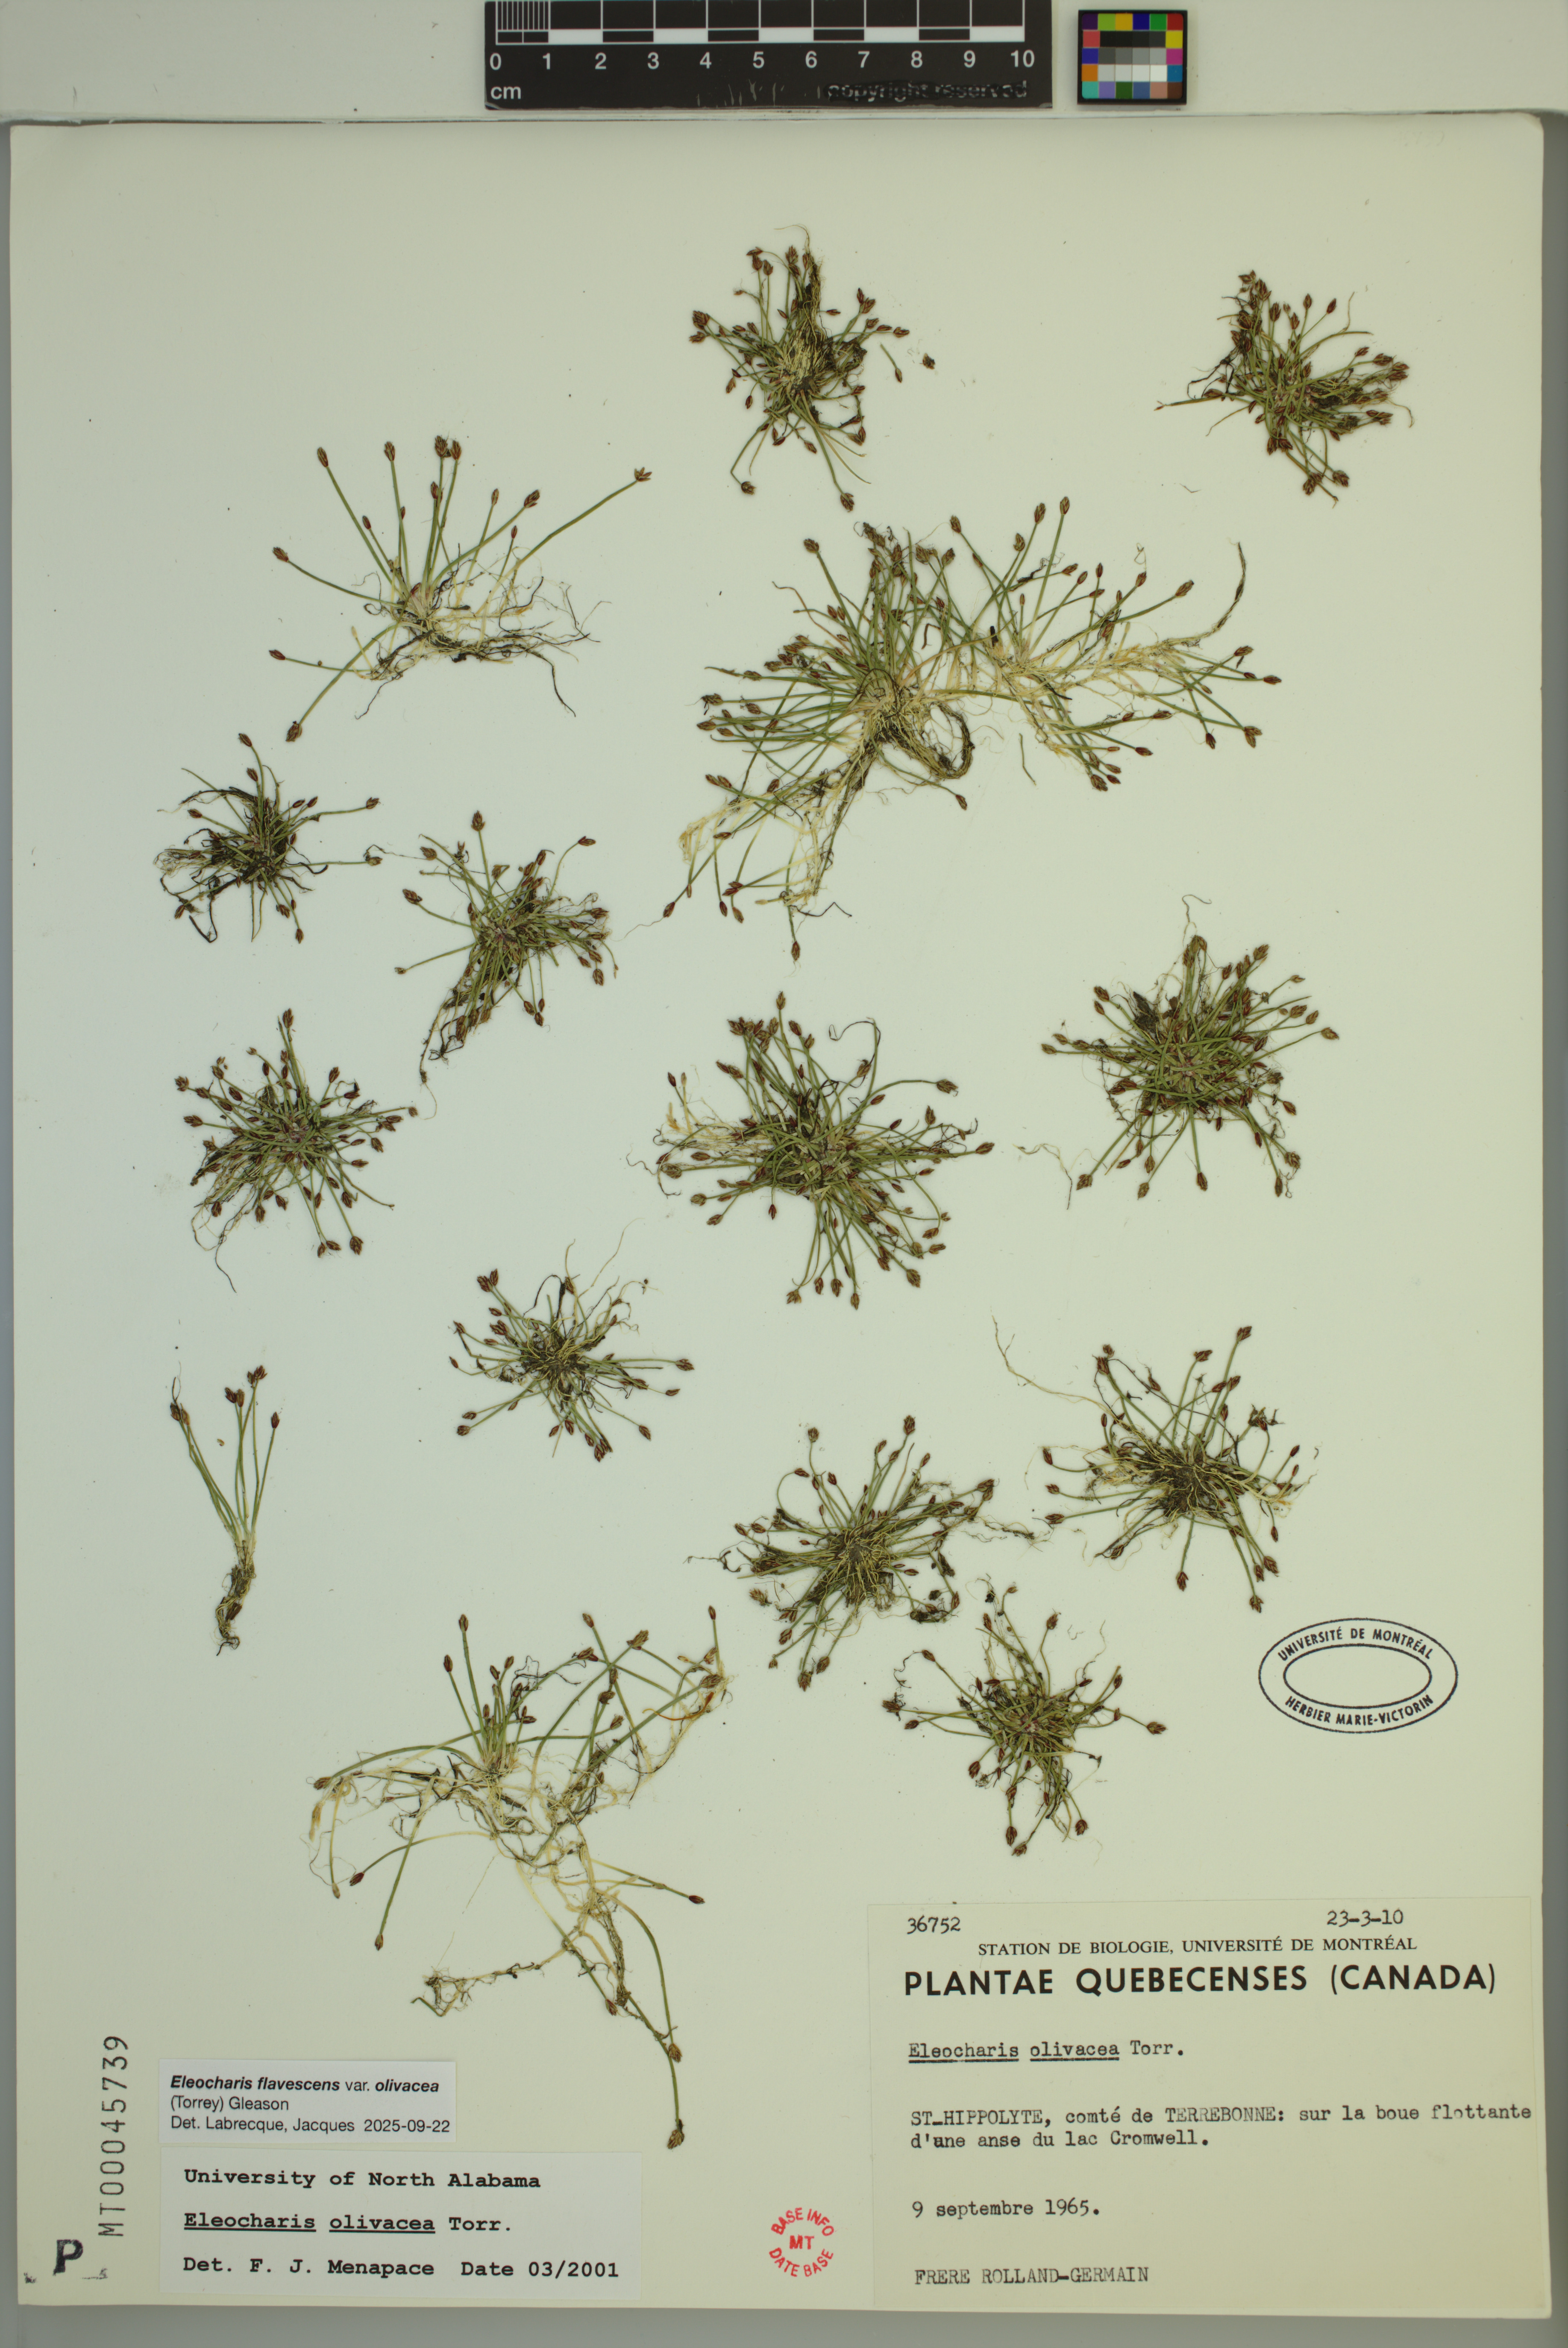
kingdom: Plantae
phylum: Tracheophyta
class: Liliopsida
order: Poales
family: Cyperaceae
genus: Eleocharis
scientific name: Eleocharis flavescens
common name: Yellow spikerush
